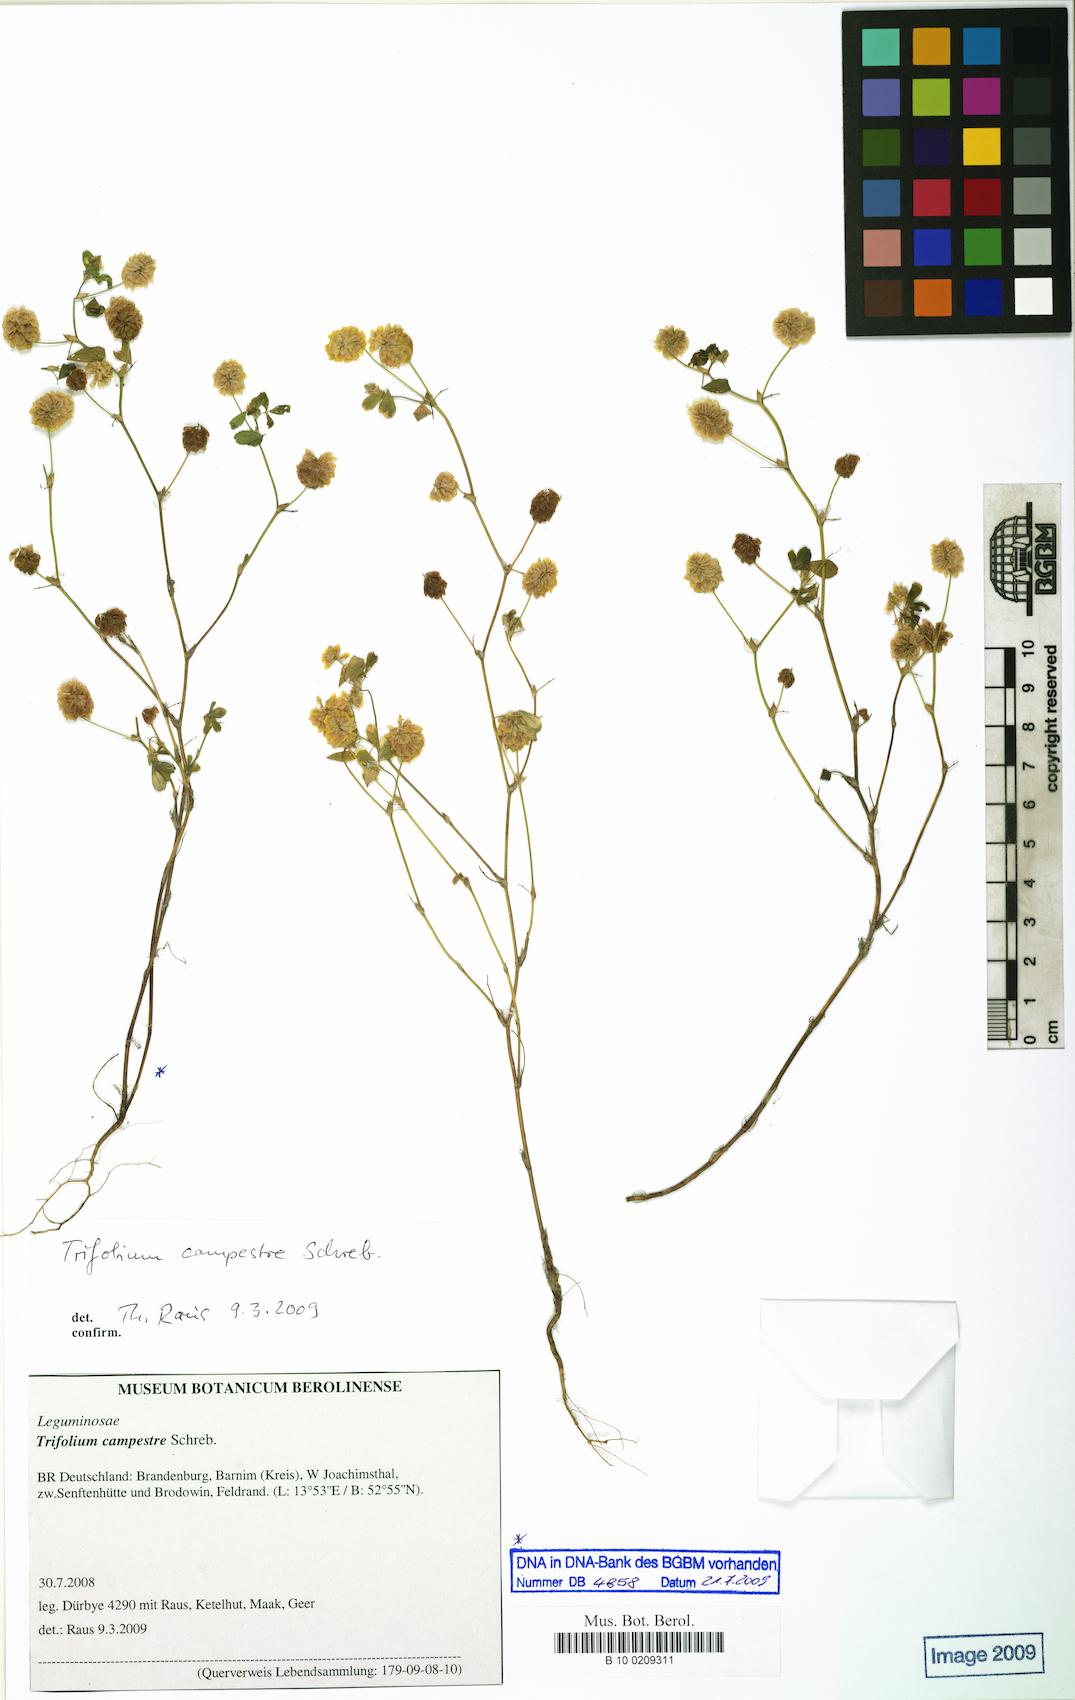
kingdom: Plantae
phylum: Tracheophyta
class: Magnoliopsida
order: Fabales
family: Fabaceae
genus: Trifolium
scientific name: Trifolium campestre
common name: Field clover
